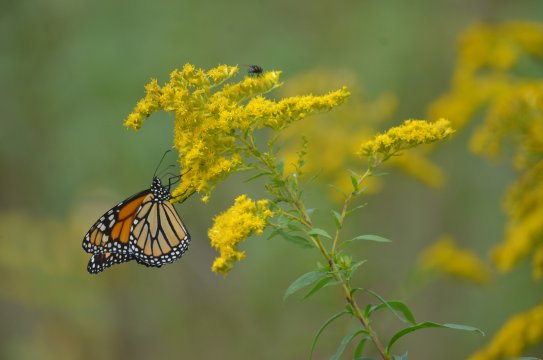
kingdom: Animalia
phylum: Arthropoda
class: Insecta
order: Lepidoptera
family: Nymphalidae
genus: Danaus
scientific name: Danaus plexippus
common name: Monarch
